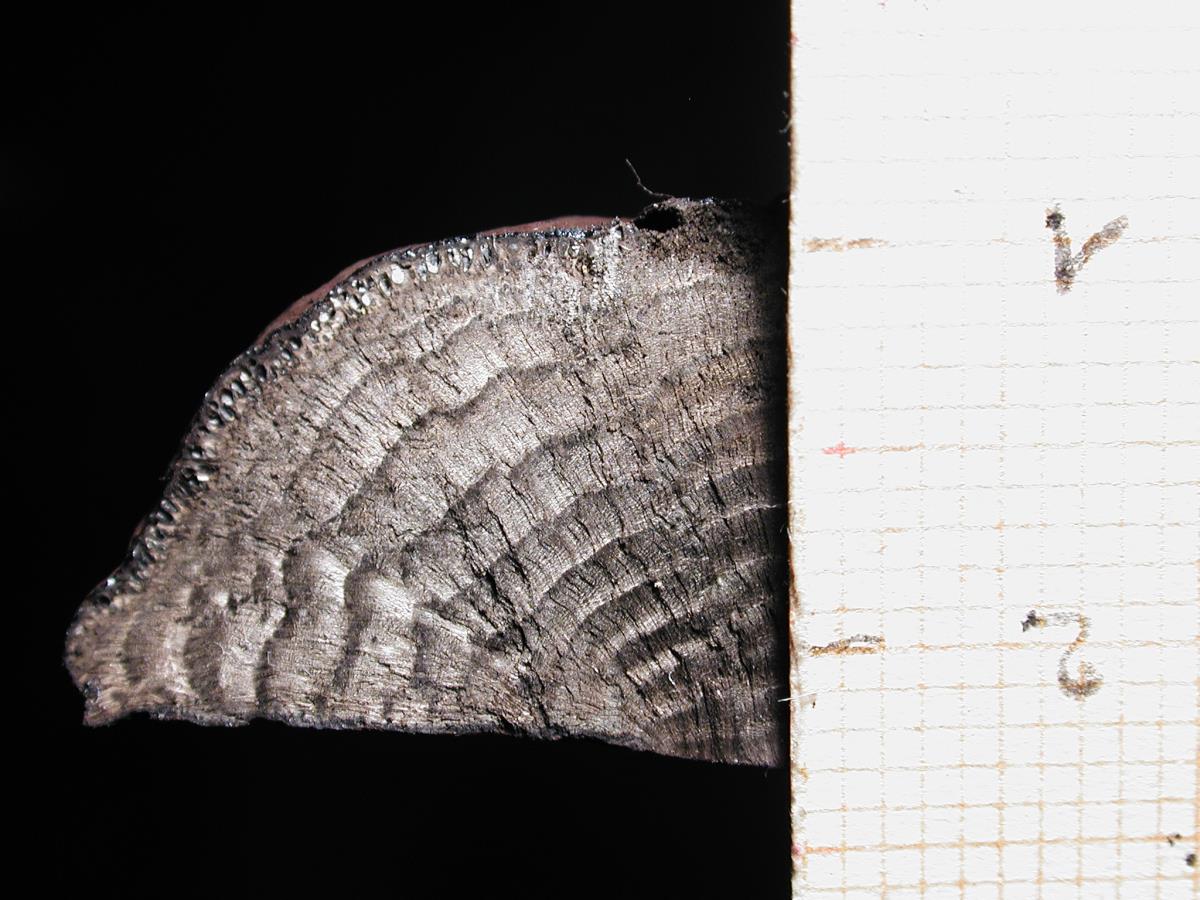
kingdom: Fungi
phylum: Ascomycota
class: Sordariomycetes
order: Xylariales
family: Hypoxylaceae
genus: Daldinia
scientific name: Daldinia dennisii
